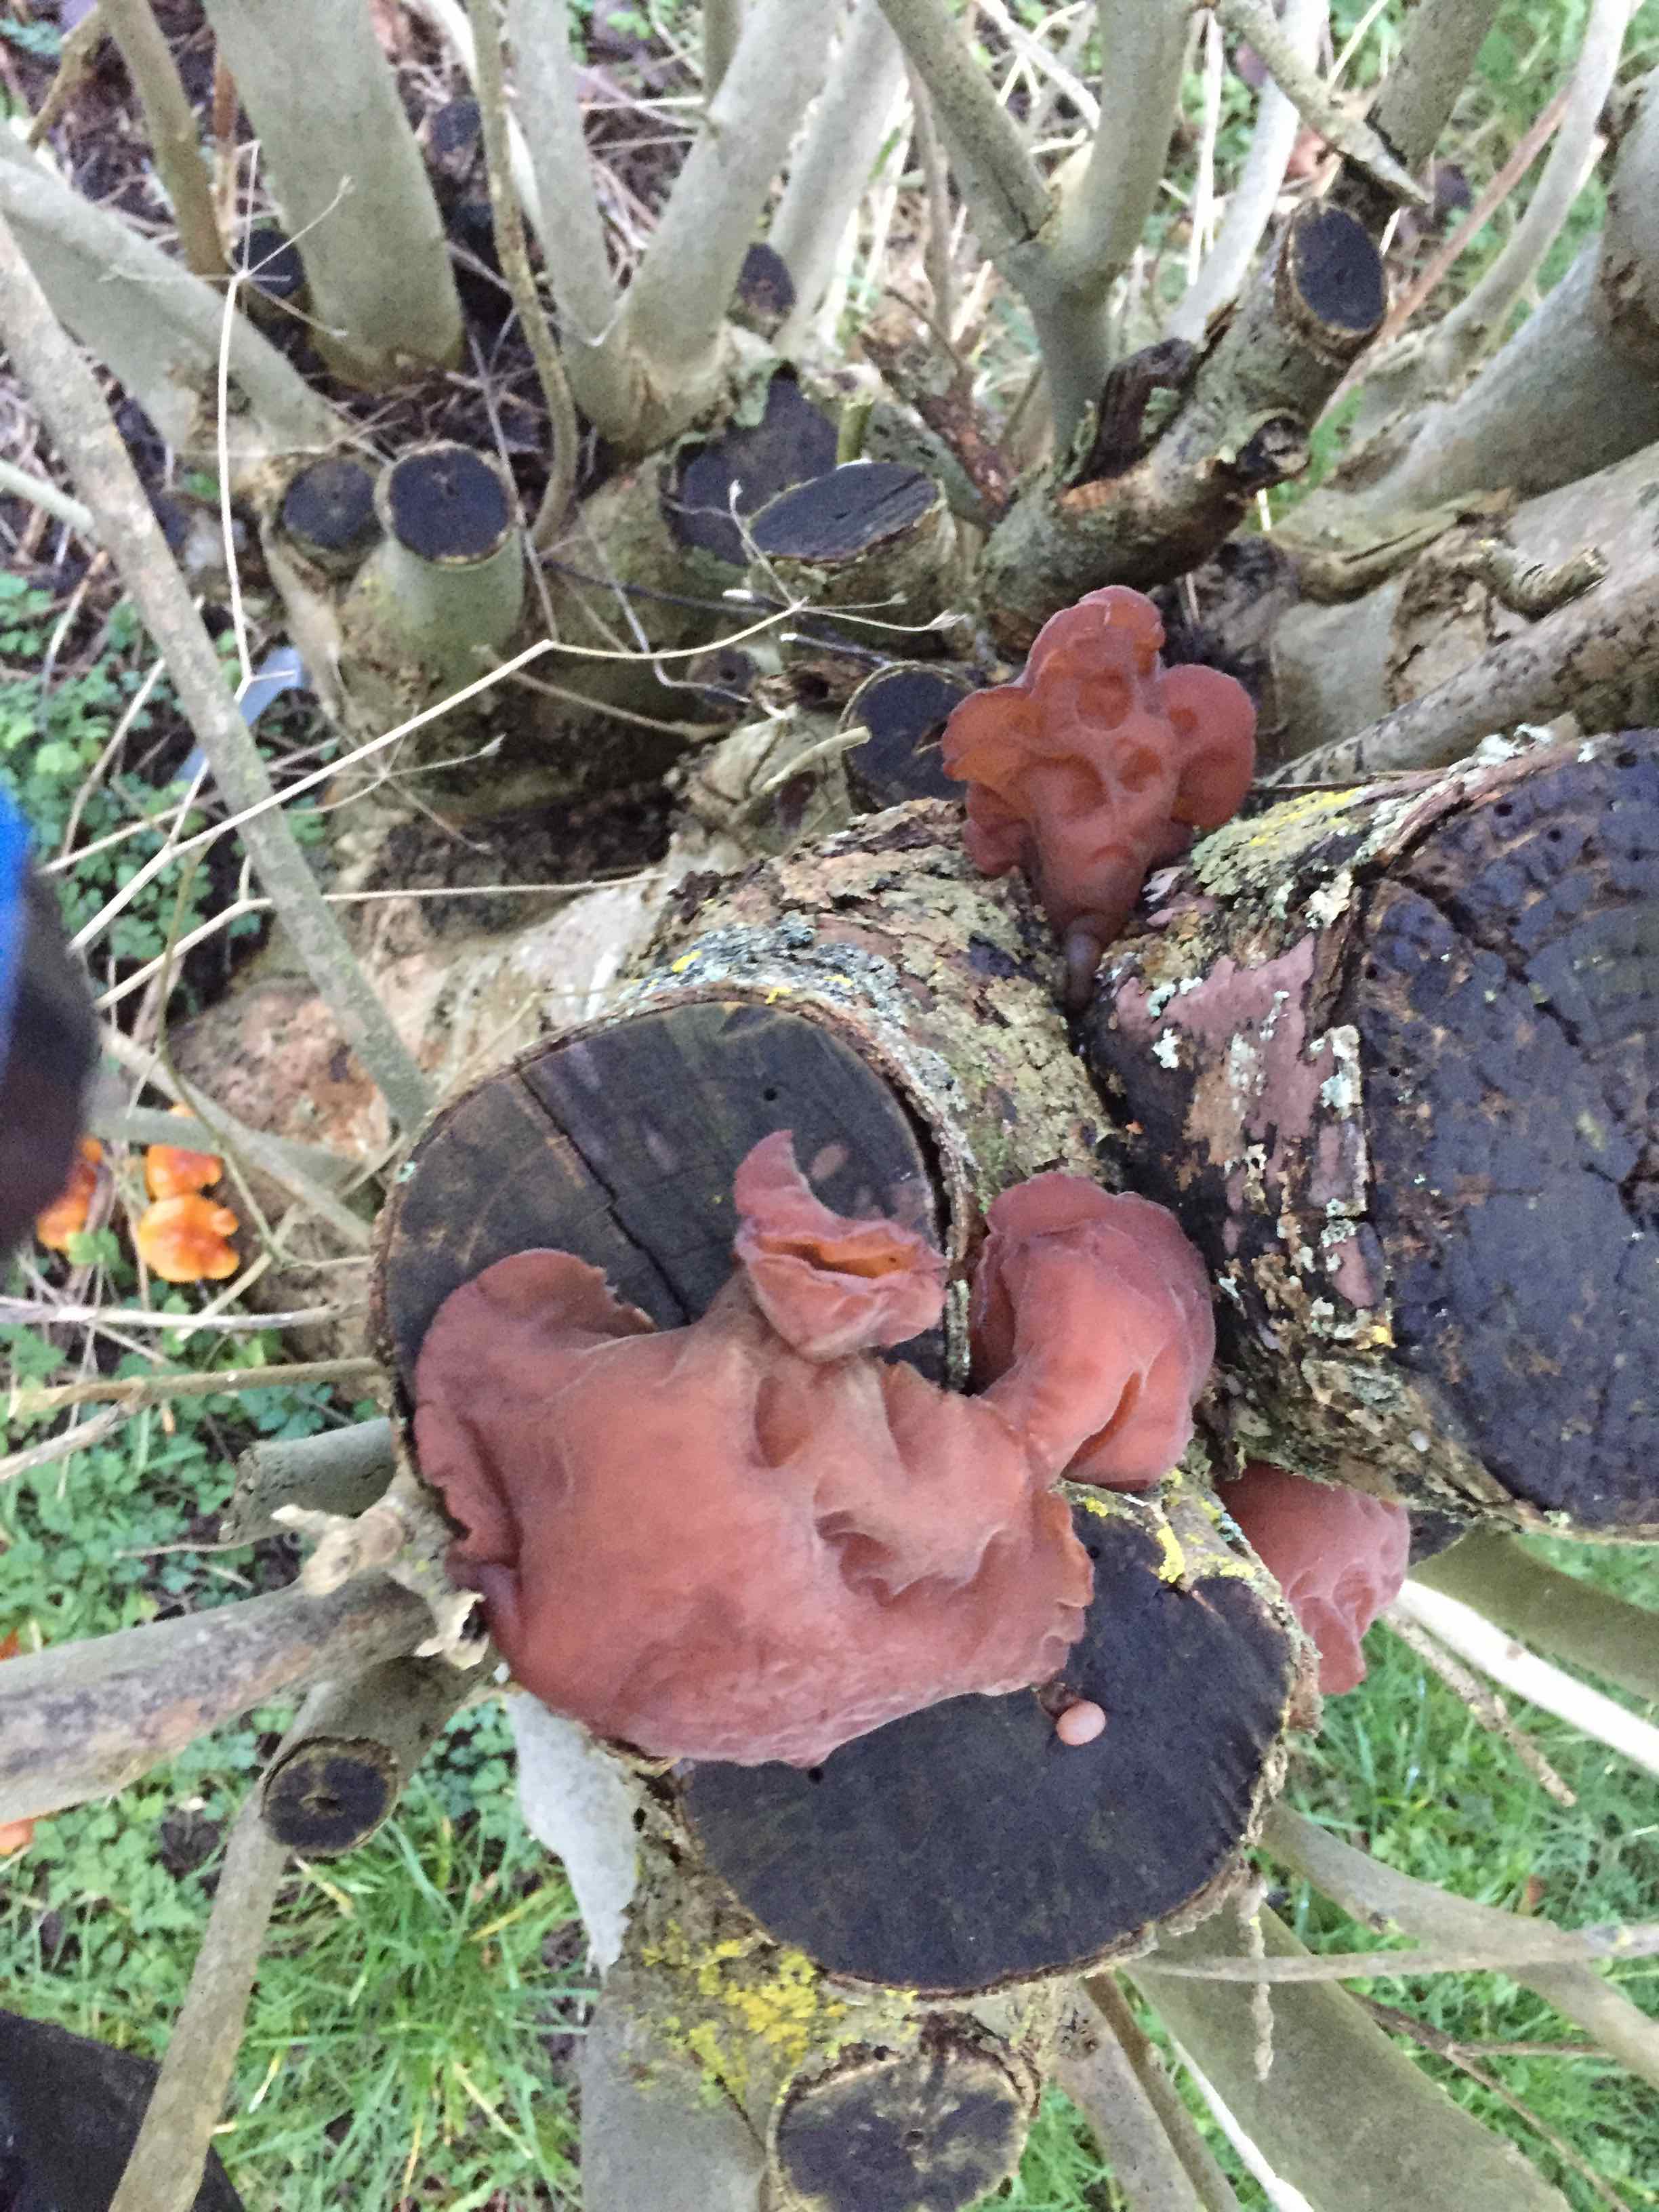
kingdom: Fungi
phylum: Basidiomycota
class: Agaricomycetes
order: Auriculariales
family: Auriculariaceae
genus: Auricularia
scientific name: Auricularia auricula-judae
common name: almindelig judasøre
